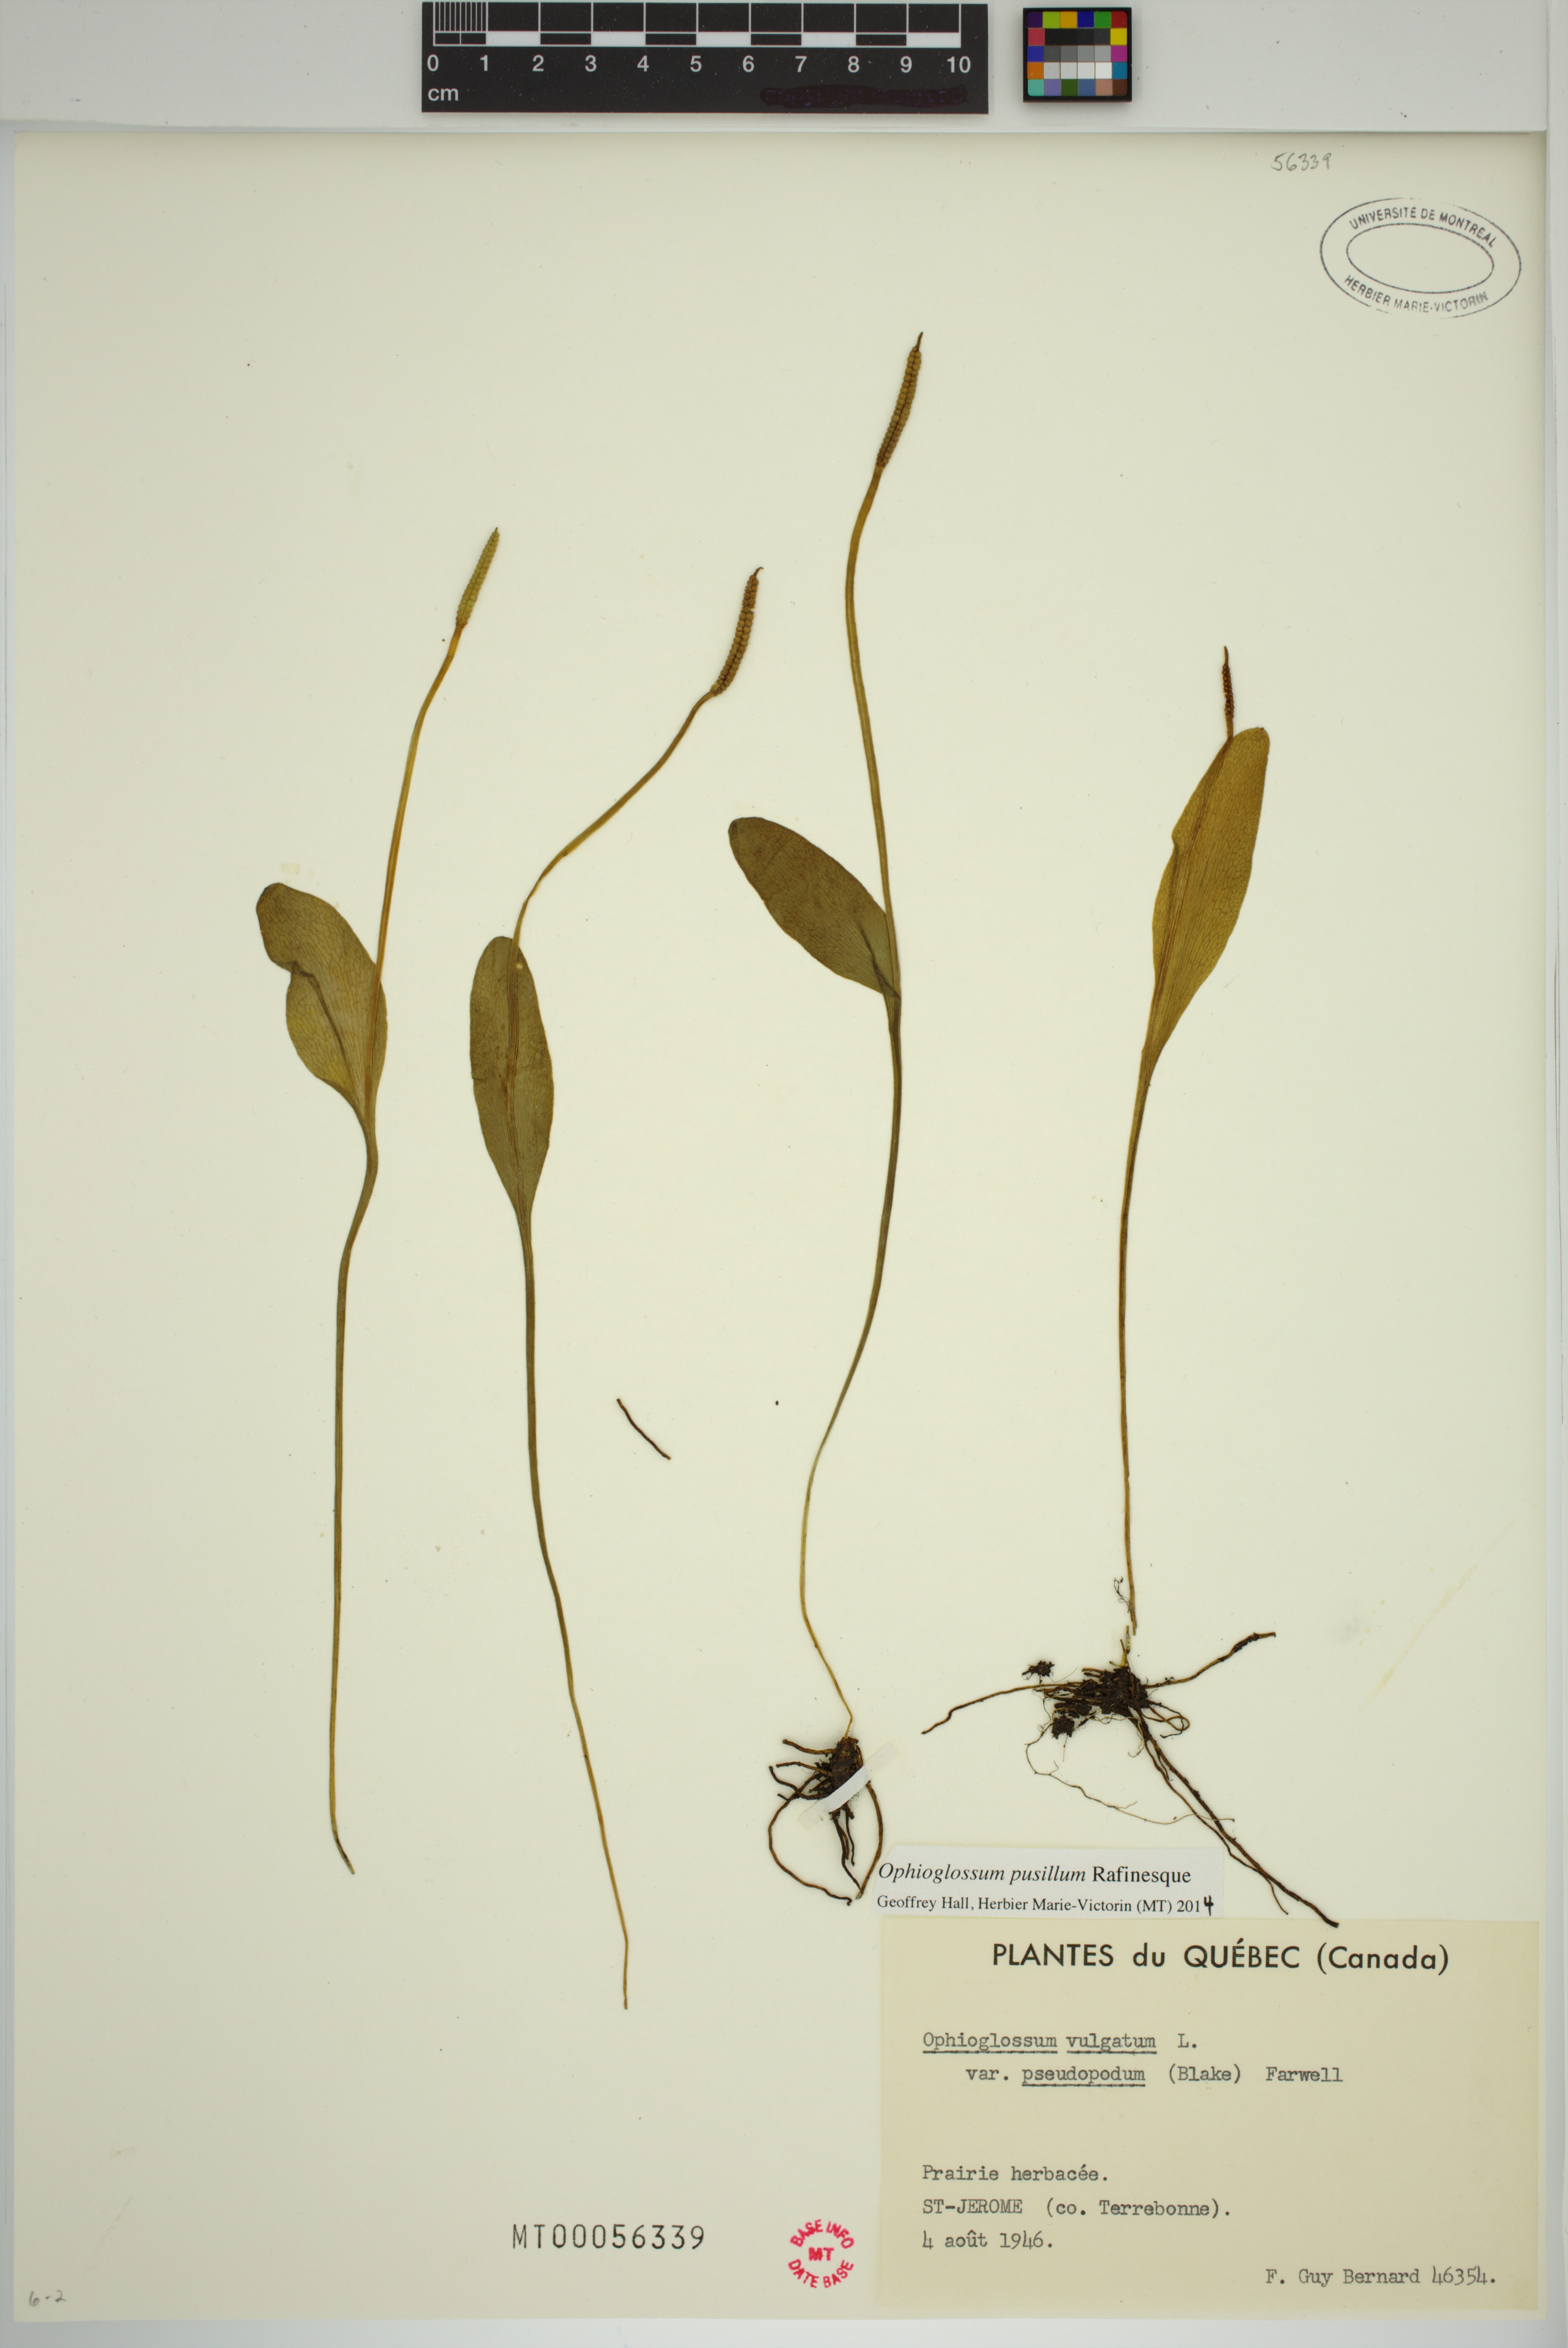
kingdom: Plantae
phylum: Tracheophyta
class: Polypodiopsida
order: Ophioglossales
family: Ophioglossaceae
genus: Ophioglossum
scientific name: Ophioglossum pusillum
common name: Northern adder's-tongue
